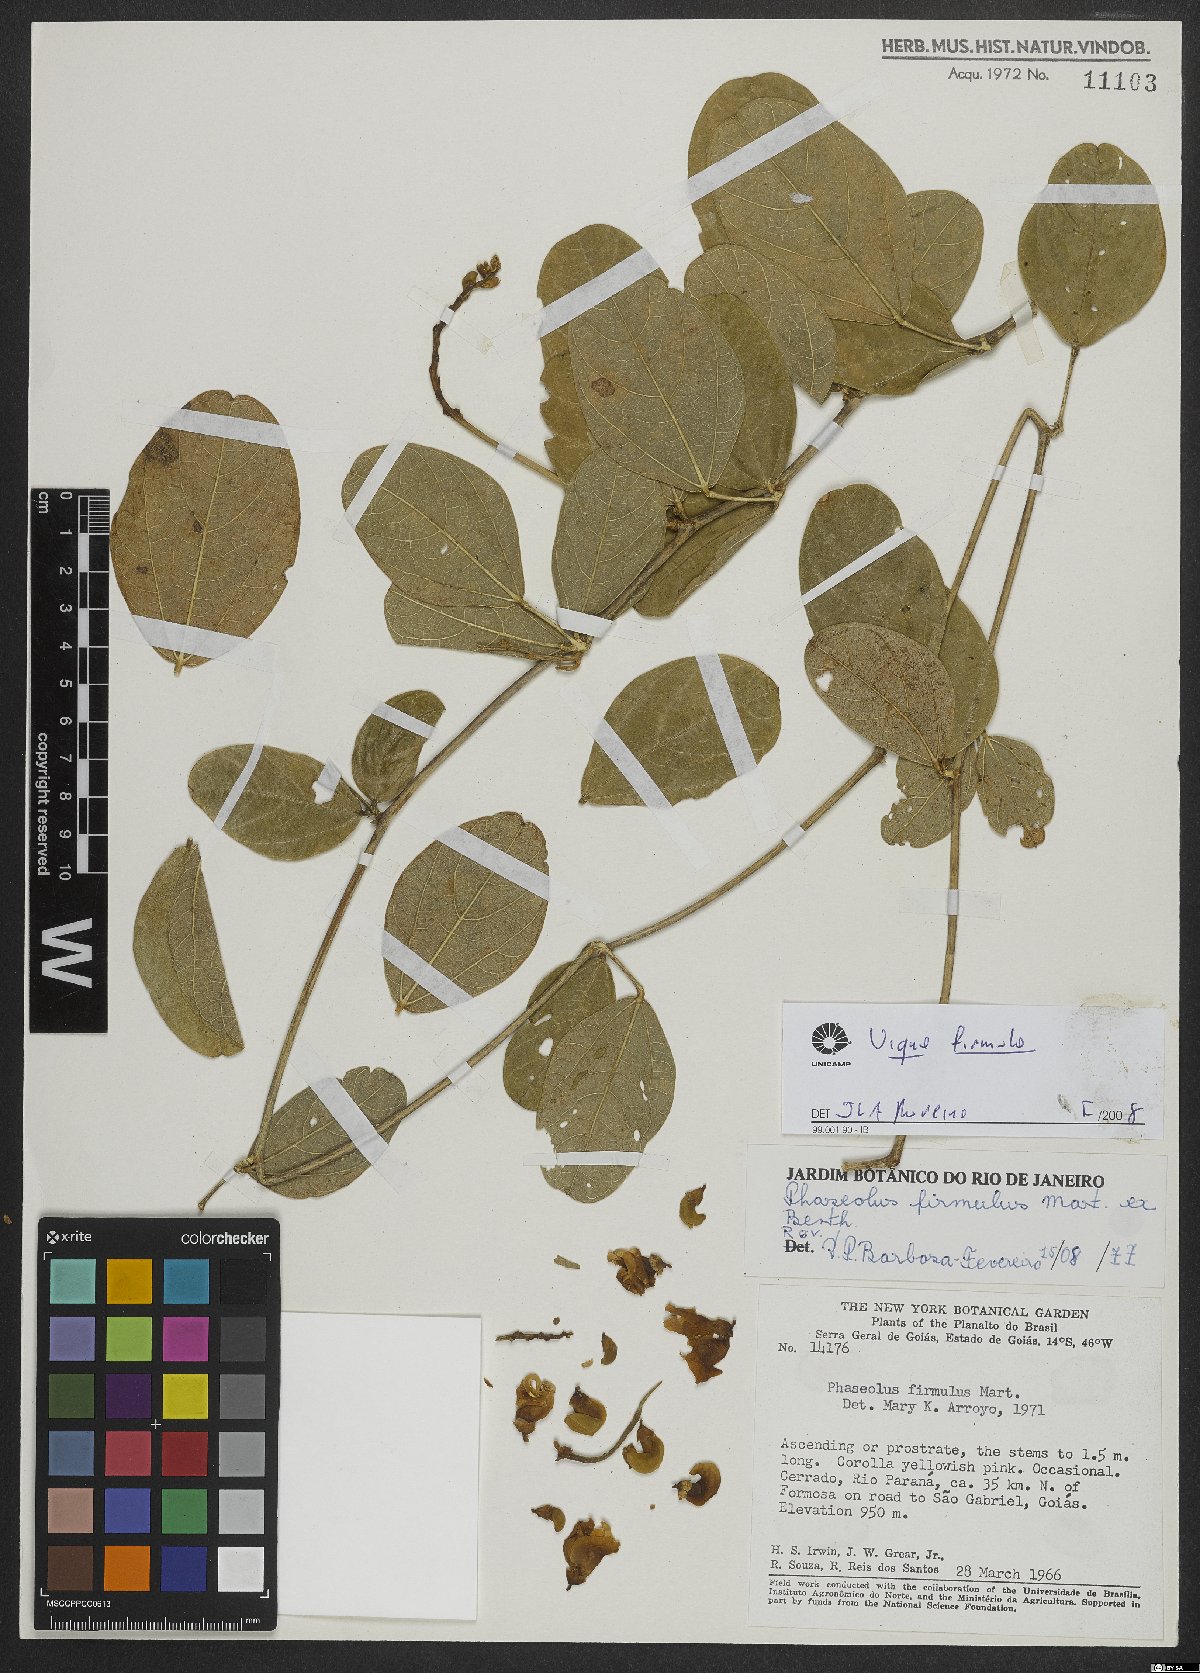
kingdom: Plantae
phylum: Tracheophyta
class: Magnoliopsida
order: Fabales
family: Fabaceae
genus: Ancistrotropis
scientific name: Ancistrotropis firmula
